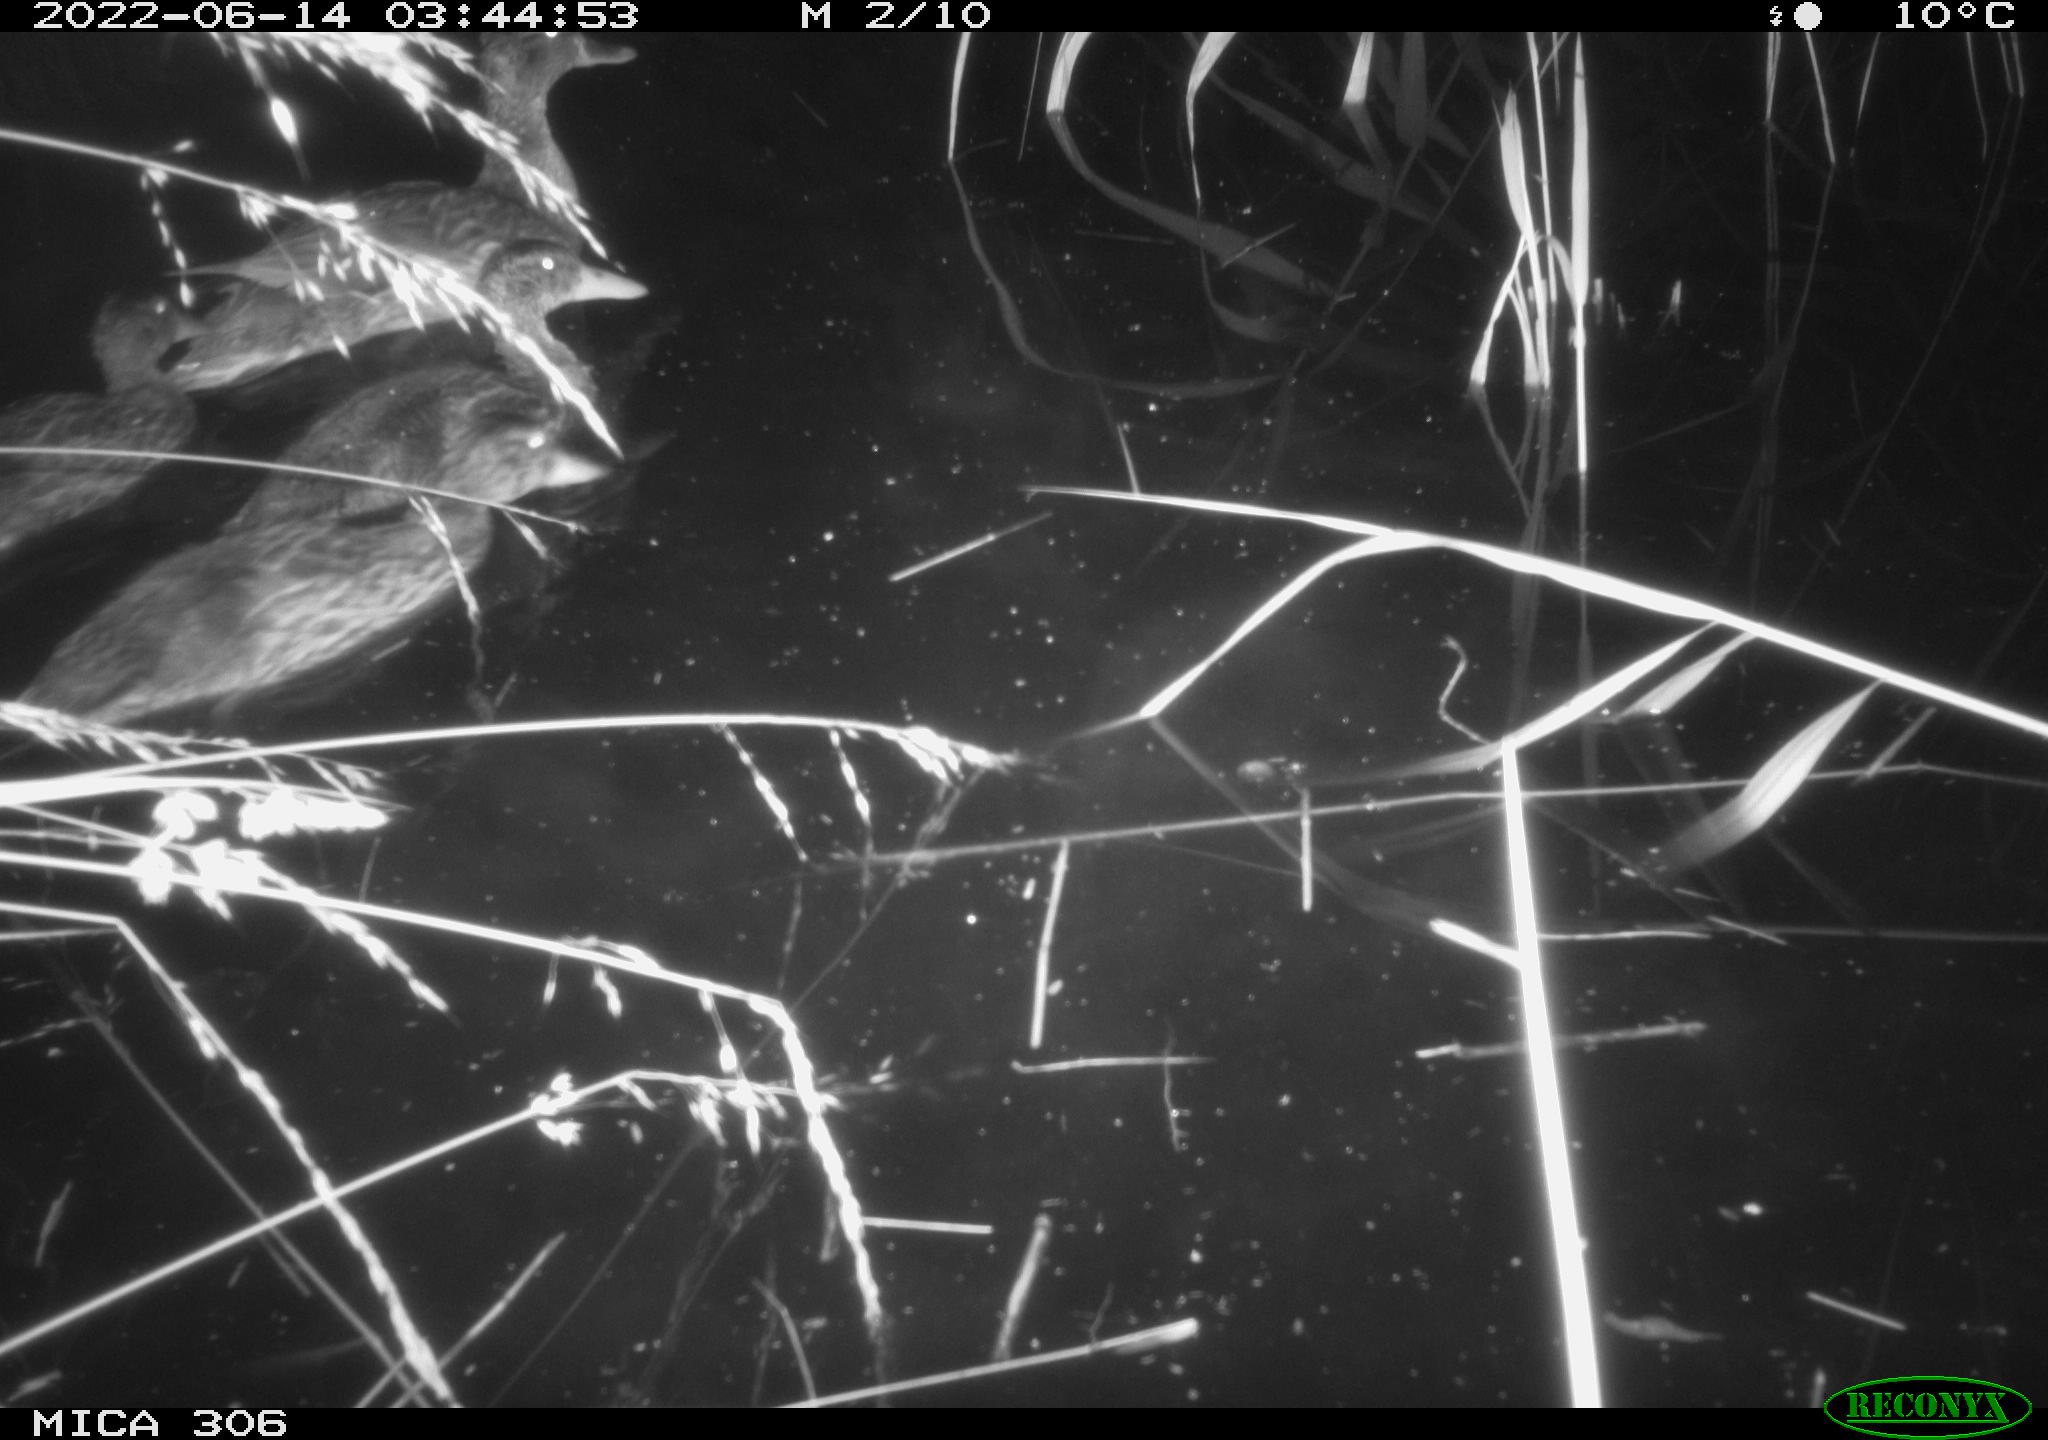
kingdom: Animalia
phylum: Chordata
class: Aves
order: Anseriformes
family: Anatidae
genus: Anas
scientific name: Anas platyrhynchos
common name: Mallard
